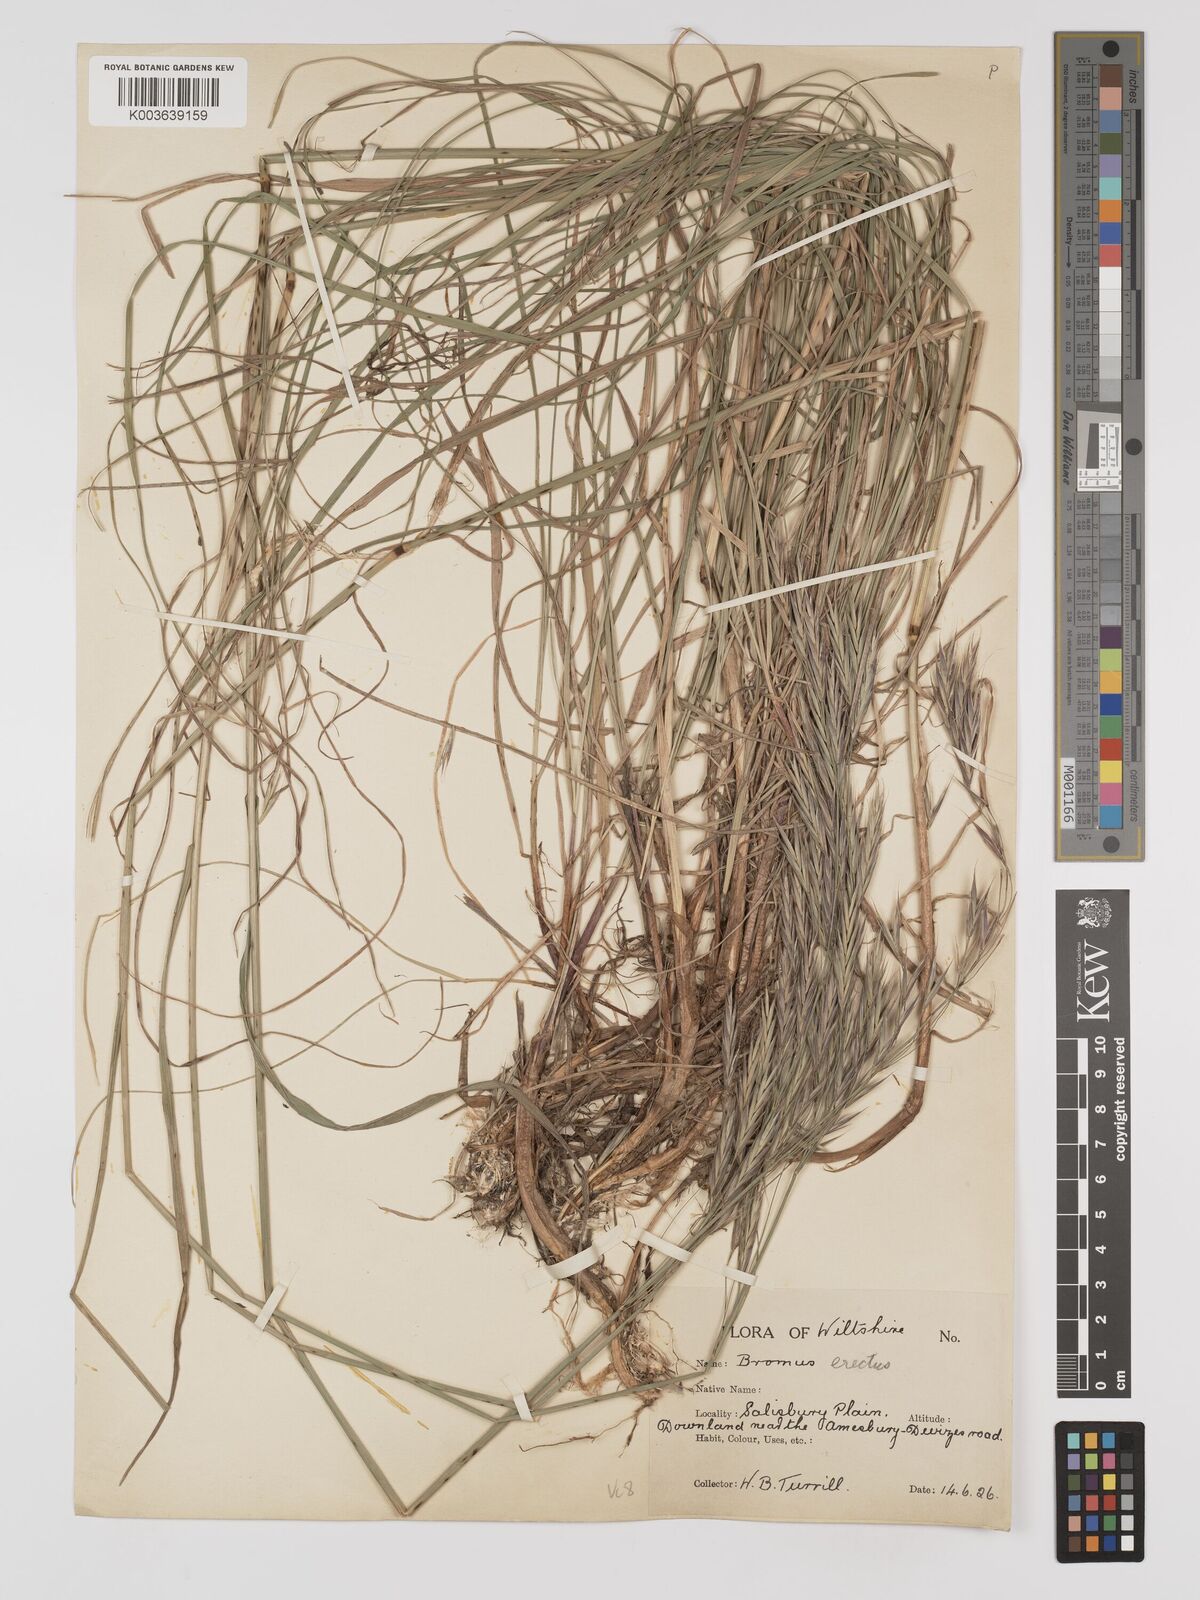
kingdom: Plantae
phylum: Tracheophyta
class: Liliopsida
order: Poales
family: Poaceae
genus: Bromus
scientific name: Bromus erectus
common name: Erect brome
